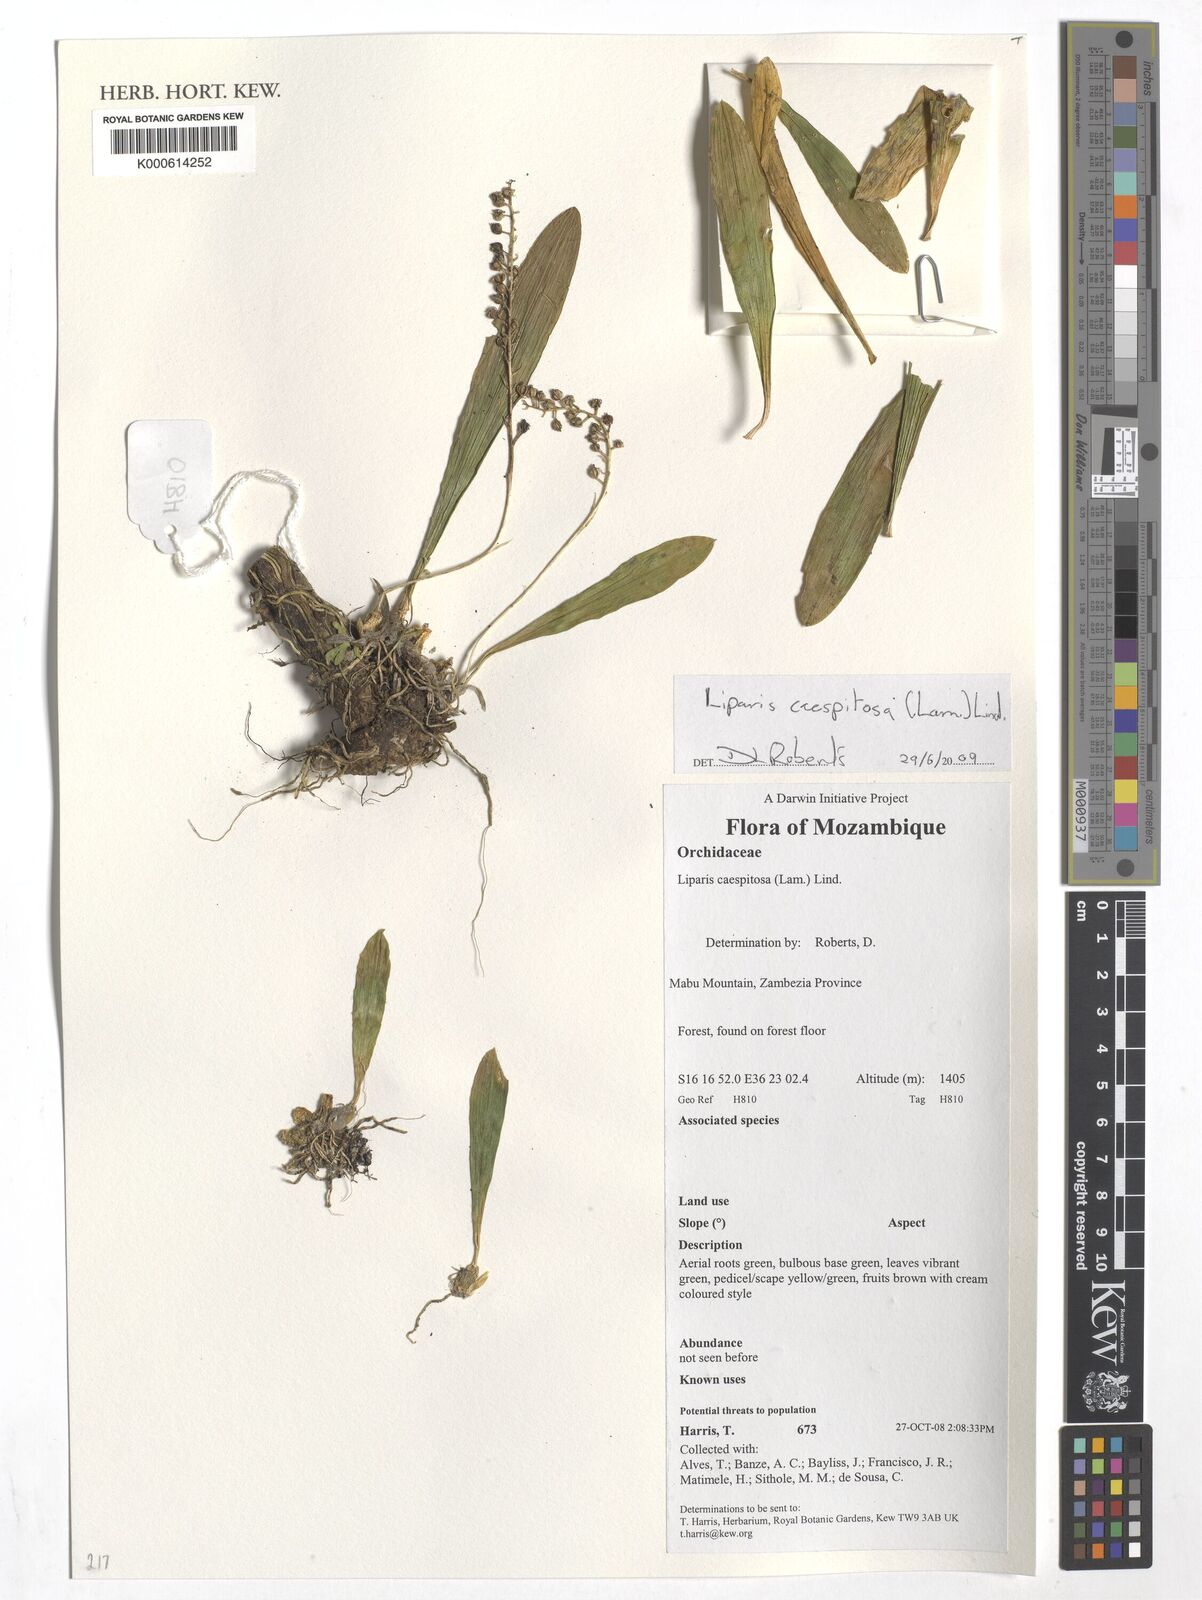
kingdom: Plantae
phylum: Tracheophyta
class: Liliopsida
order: Asparagales
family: Orchidaceae
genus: Liparis
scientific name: Liparis
